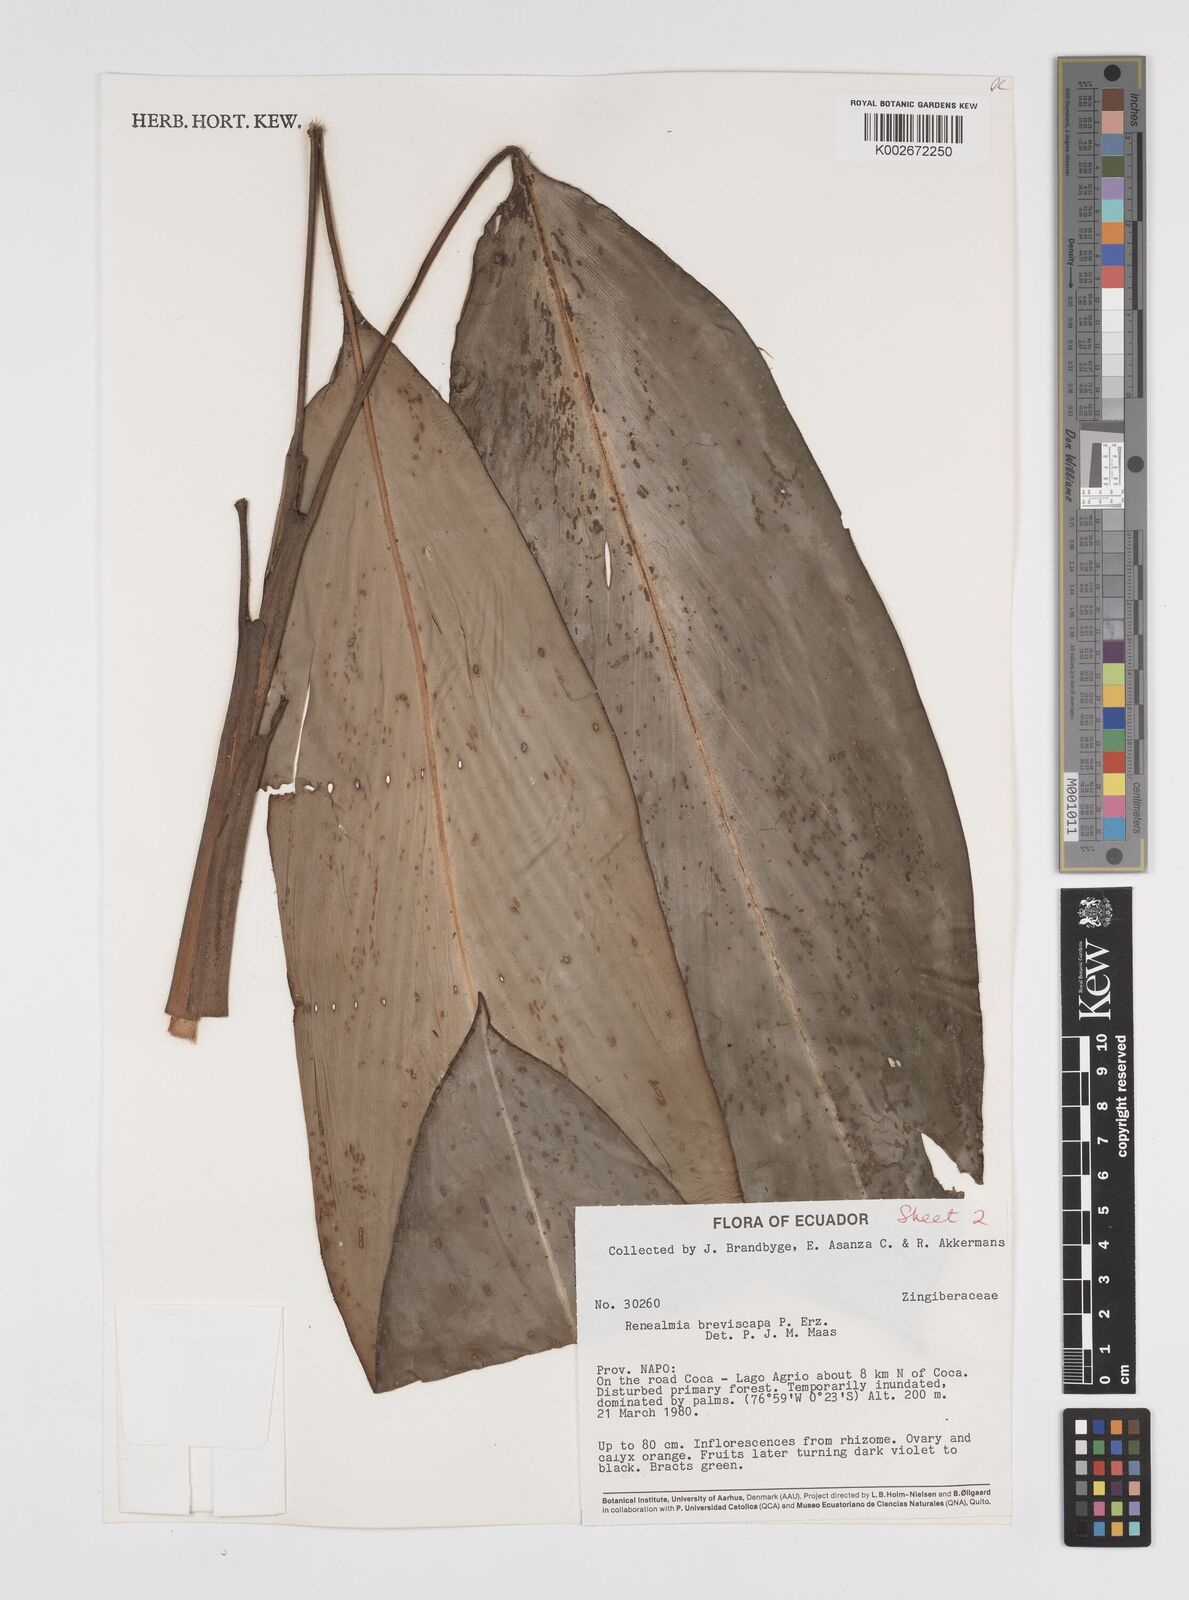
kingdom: Plantae
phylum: Tracheophyta
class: Liliopsida
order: Zingiberales
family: Zingiberaceae
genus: Renealmia
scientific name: Renealmia breviscapa
